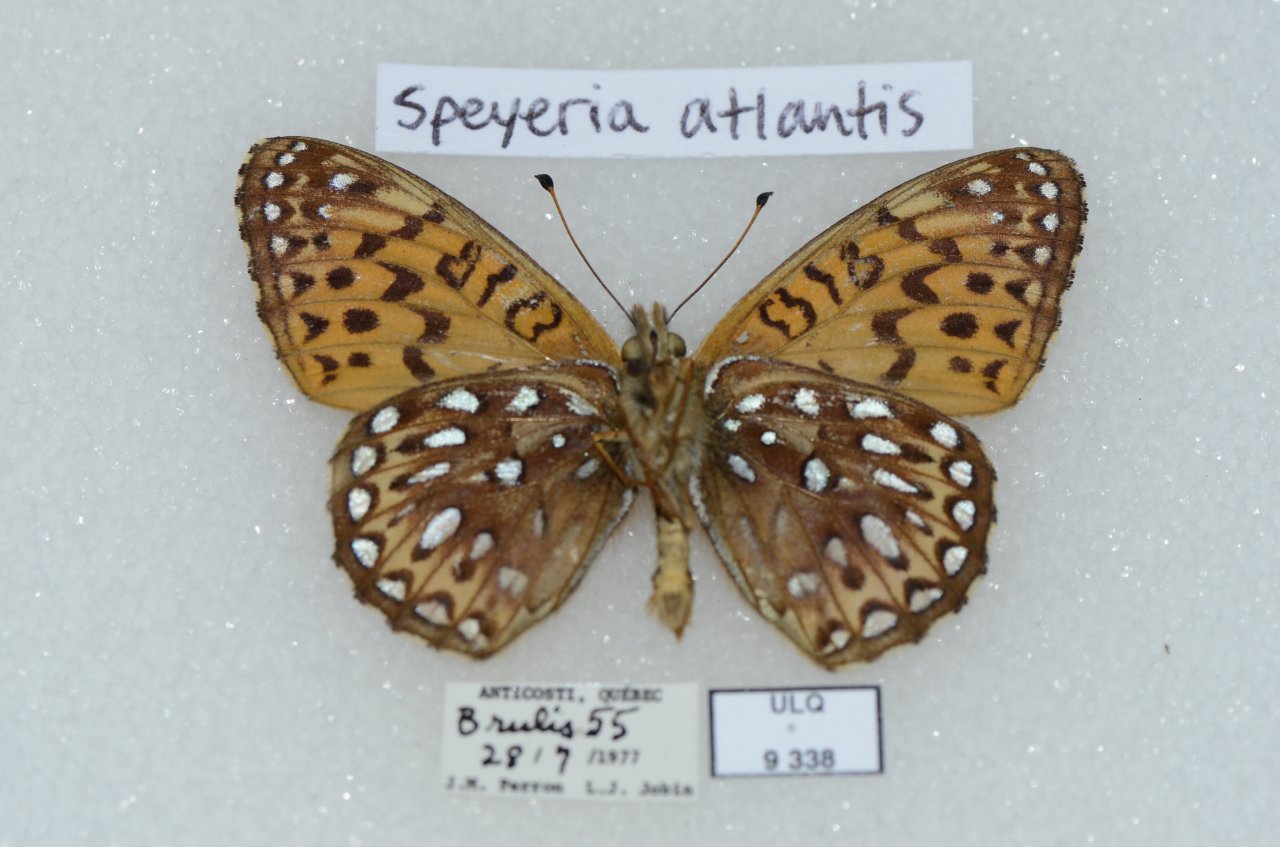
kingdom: Animalia
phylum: Arthropoda
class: Insecta
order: Lepidoptera
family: Nymphalidae
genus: Speyeria
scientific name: Speyeria atlantis
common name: Atlantis Fritillary
